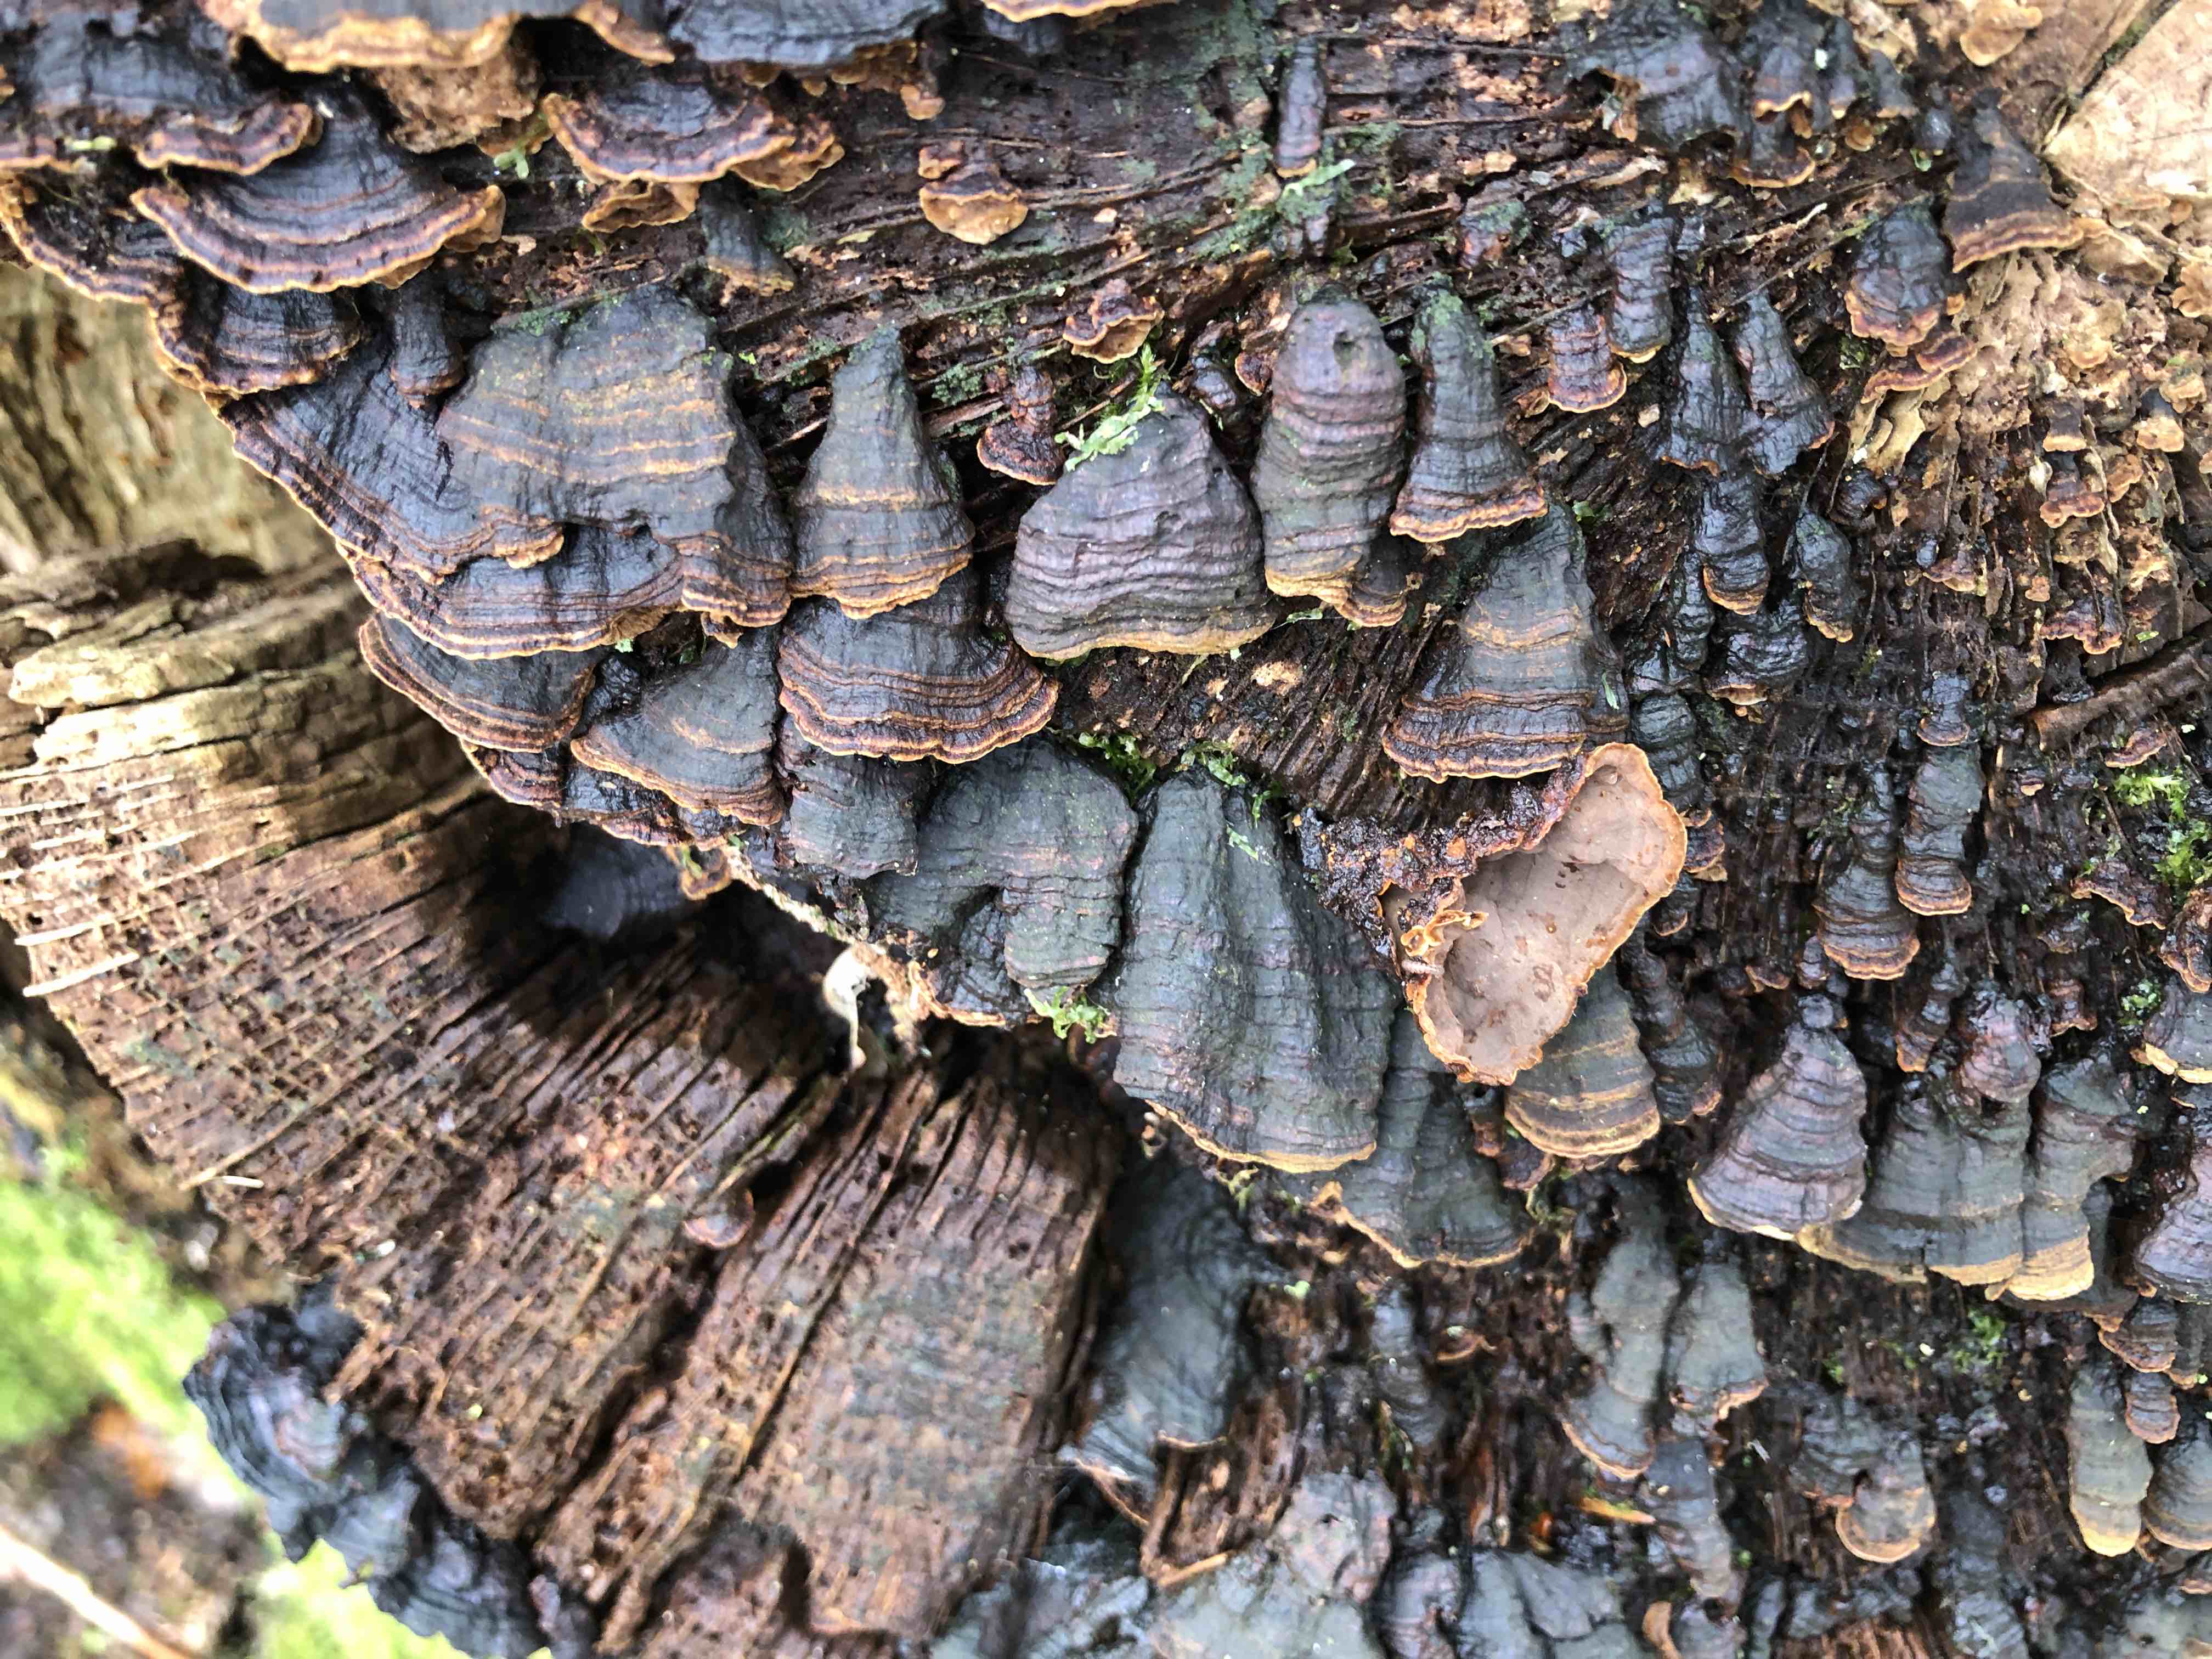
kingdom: Fungi
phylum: Basidiomycota
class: Agaricomycetes
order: Hymenochaetales
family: Hymenochaetaceae
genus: Hymenochaete
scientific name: Hymenochaete rubiginosa
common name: stiv ruslædersvamp
